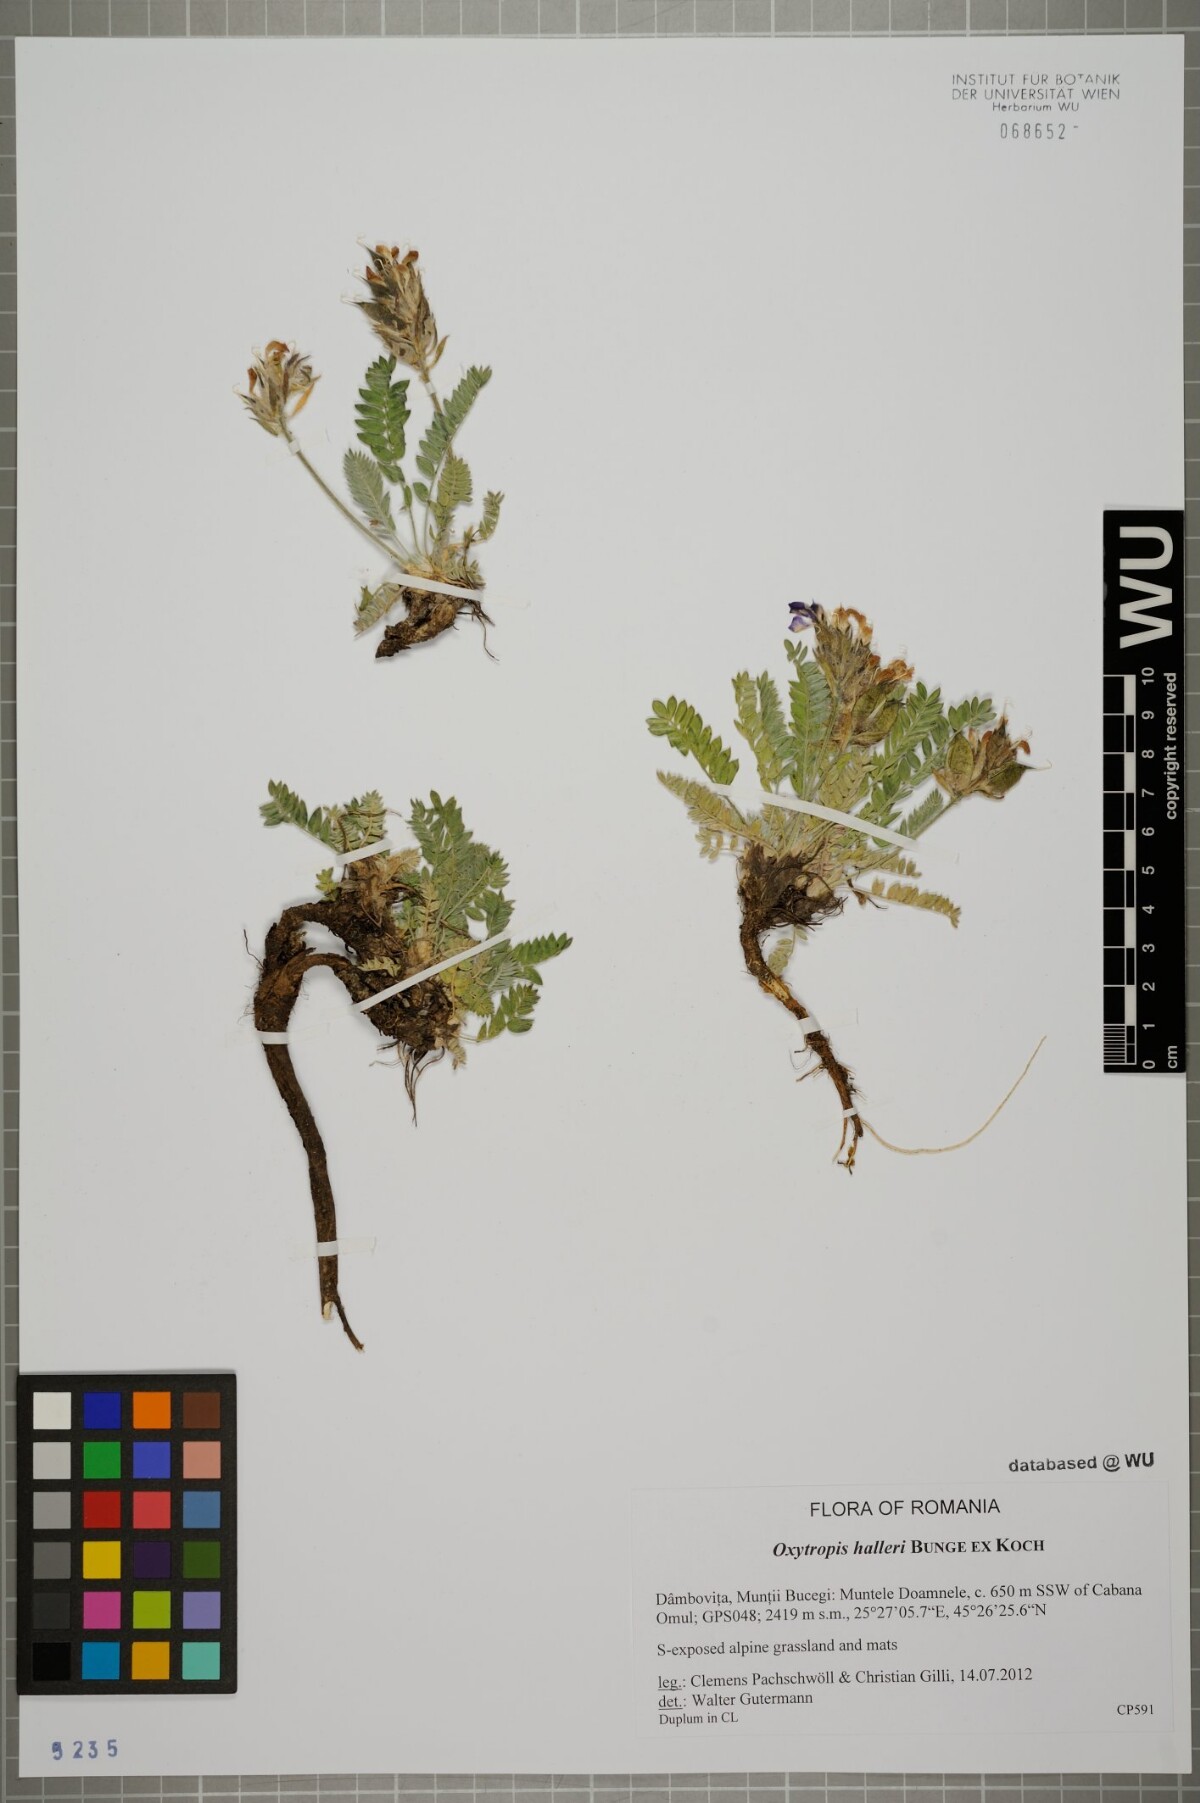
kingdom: Plantae
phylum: Tracheophyta
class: Magnoliopsida
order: Fabales
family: Fabaceae
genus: Oxytropis
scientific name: Oxytropis halleri
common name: Purple oxytropis
